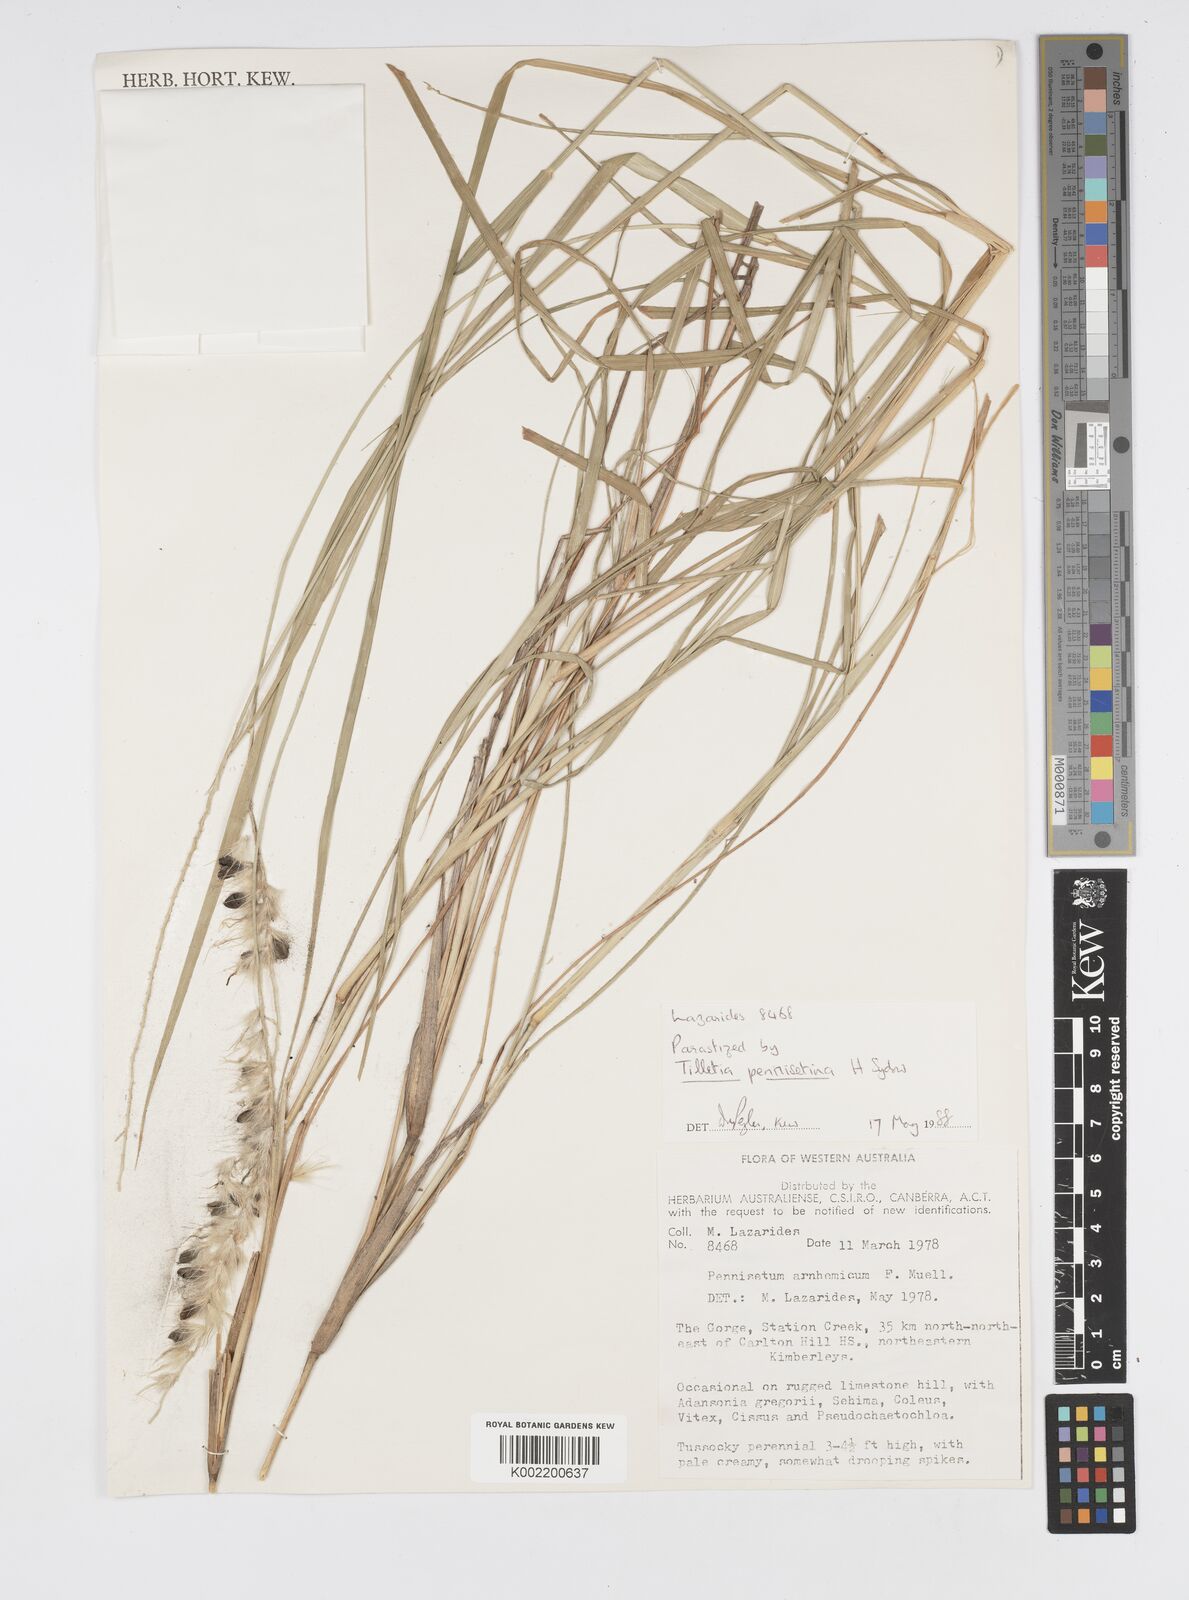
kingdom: Plantae
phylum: Tracheophyta
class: Liliopsida
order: Poales
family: Poaceae
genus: Cenchrus
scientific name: Cenchrus arnhemicus
